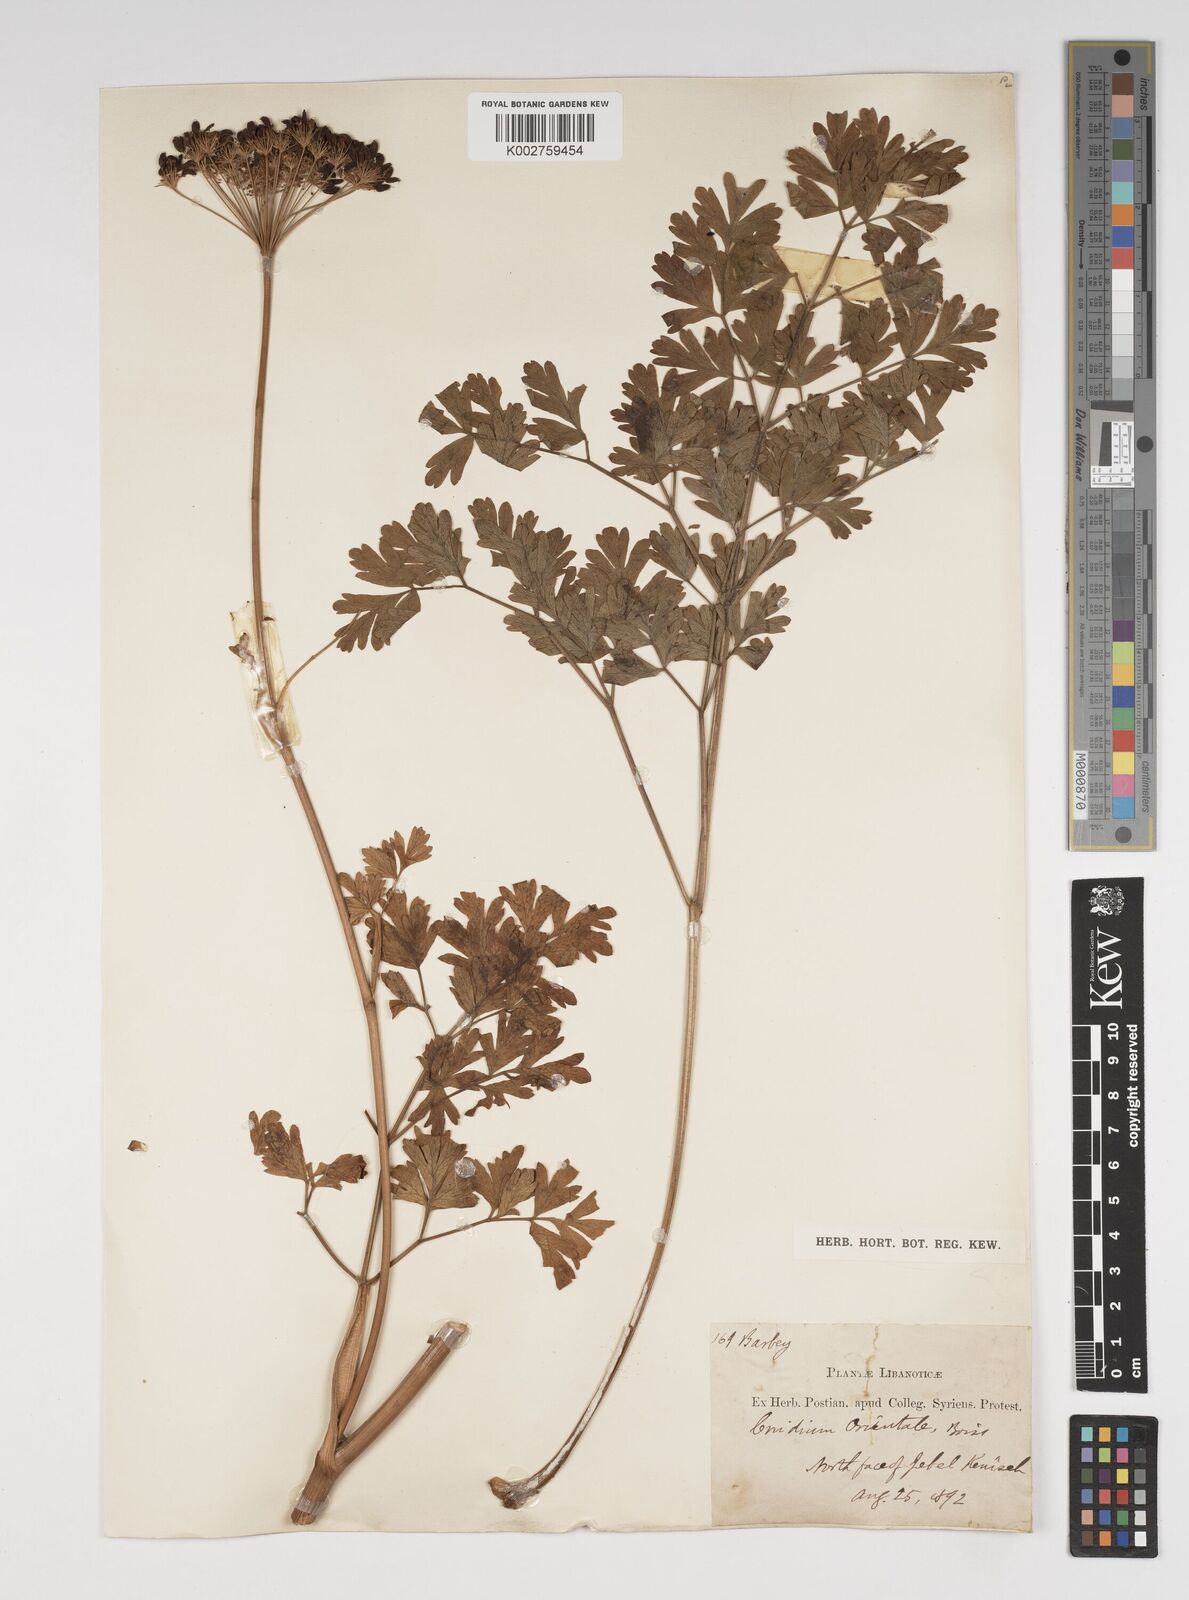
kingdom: Plantae
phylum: Tracheophyta
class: Magnoliopsida
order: Apiales
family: Apiaceae
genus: Katapsuxis
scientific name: Katapsuxis silaifolia
